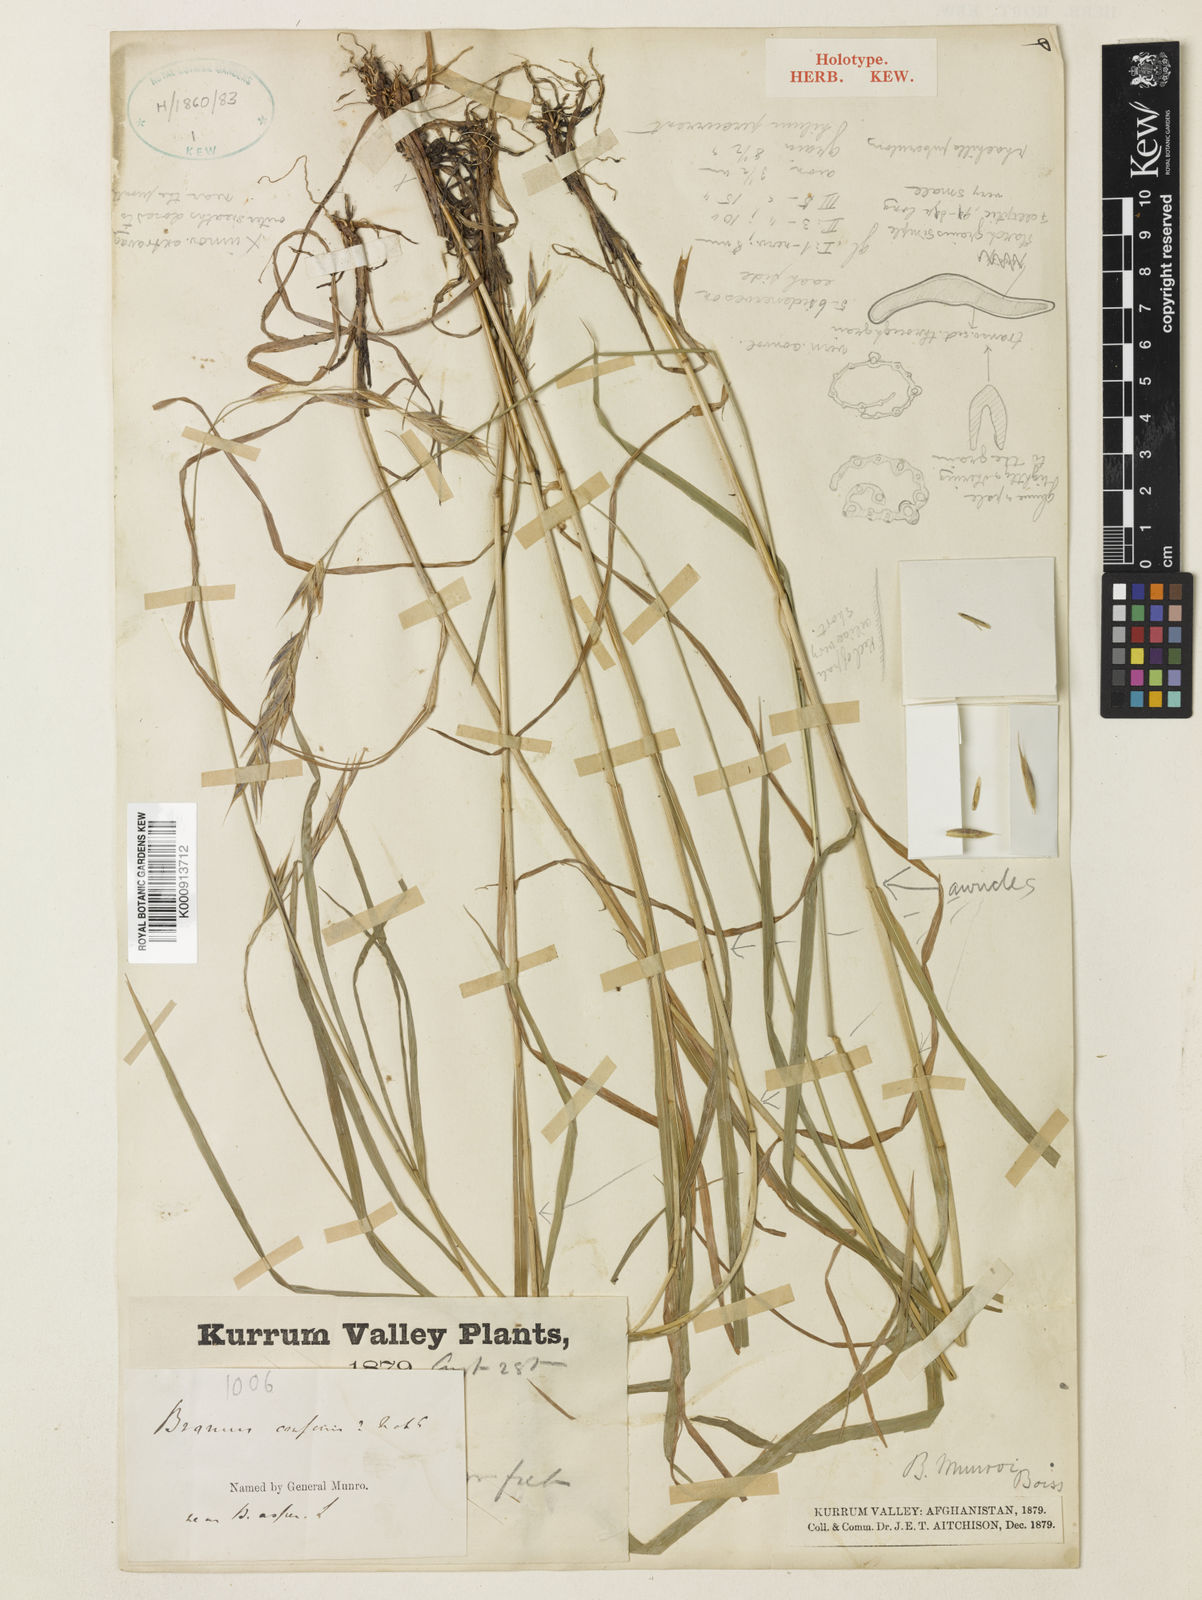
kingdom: Plantae
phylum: Tracheophyta
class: Liliopsida
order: Poales
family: Poaceae
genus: Bromus
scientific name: Bromus confinis
